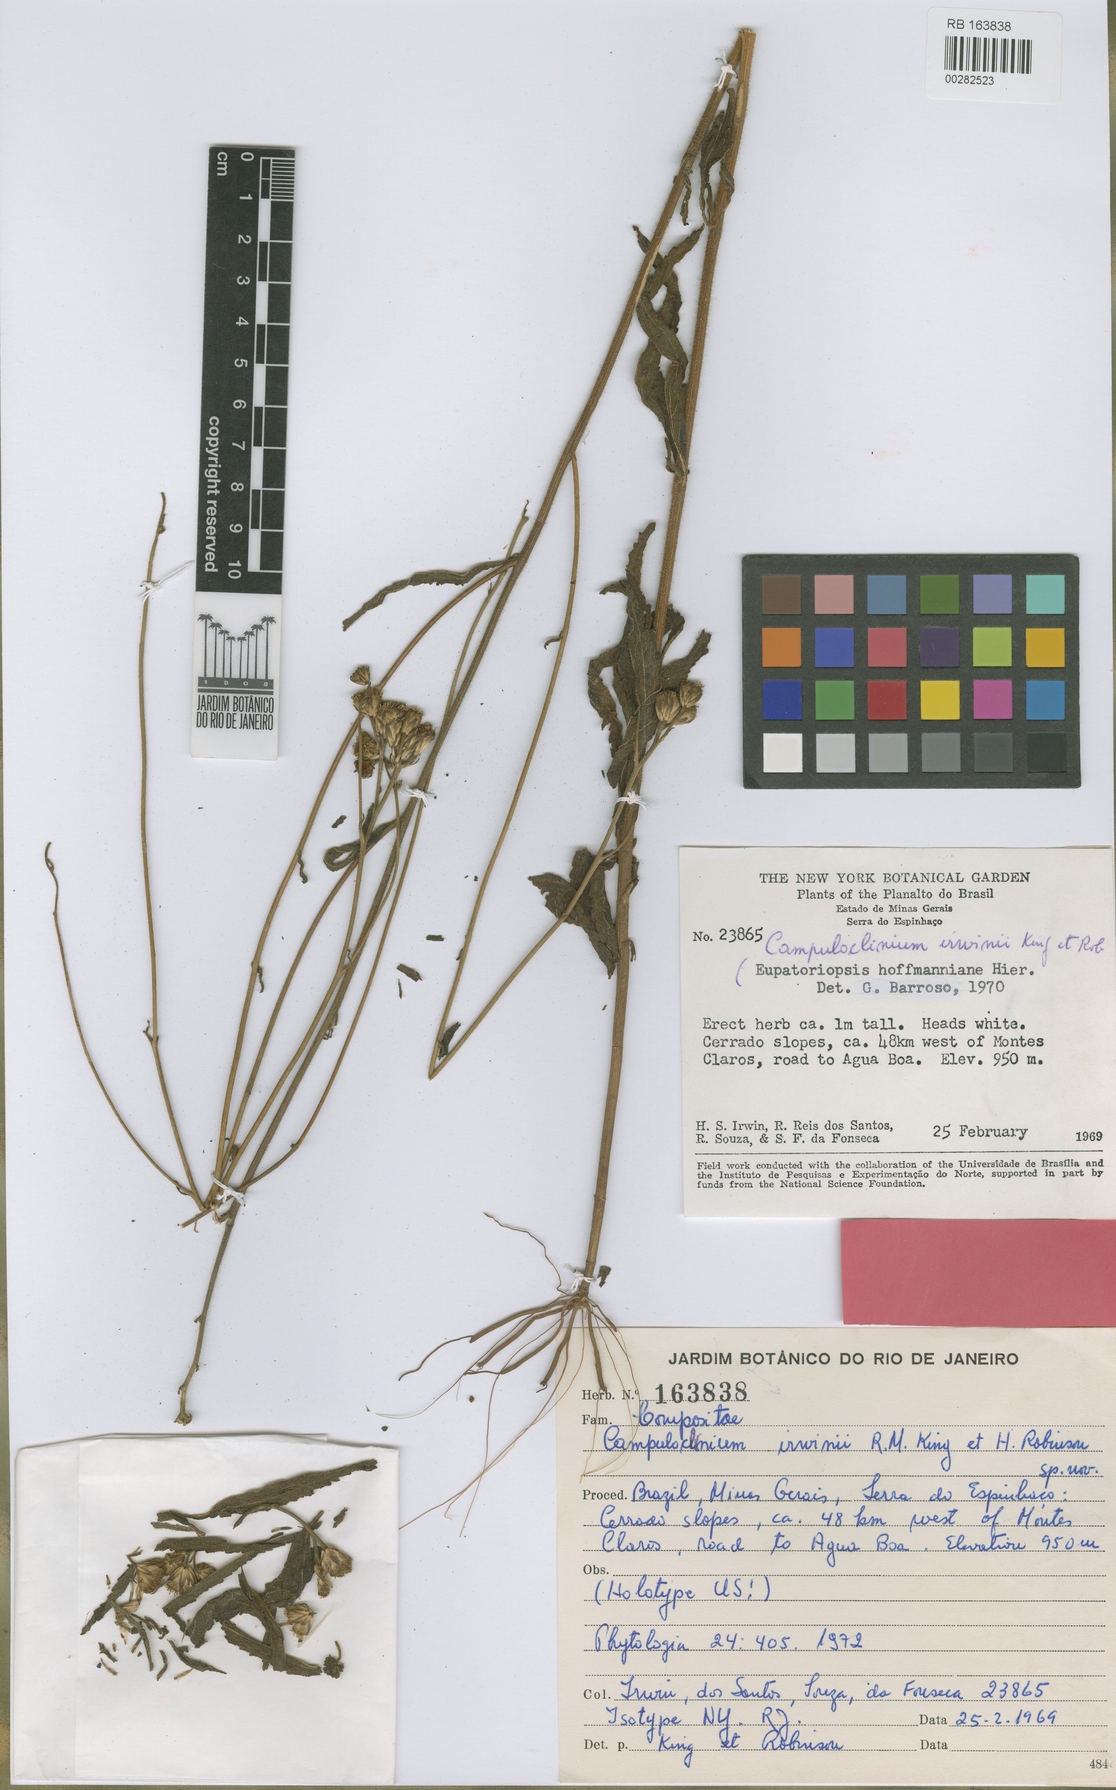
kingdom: Plantae
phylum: Tracheophyta
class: Magnoliopsida
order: Asterales
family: Asteraceae
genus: Campuloclinium
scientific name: Campuloclinium irwinii
